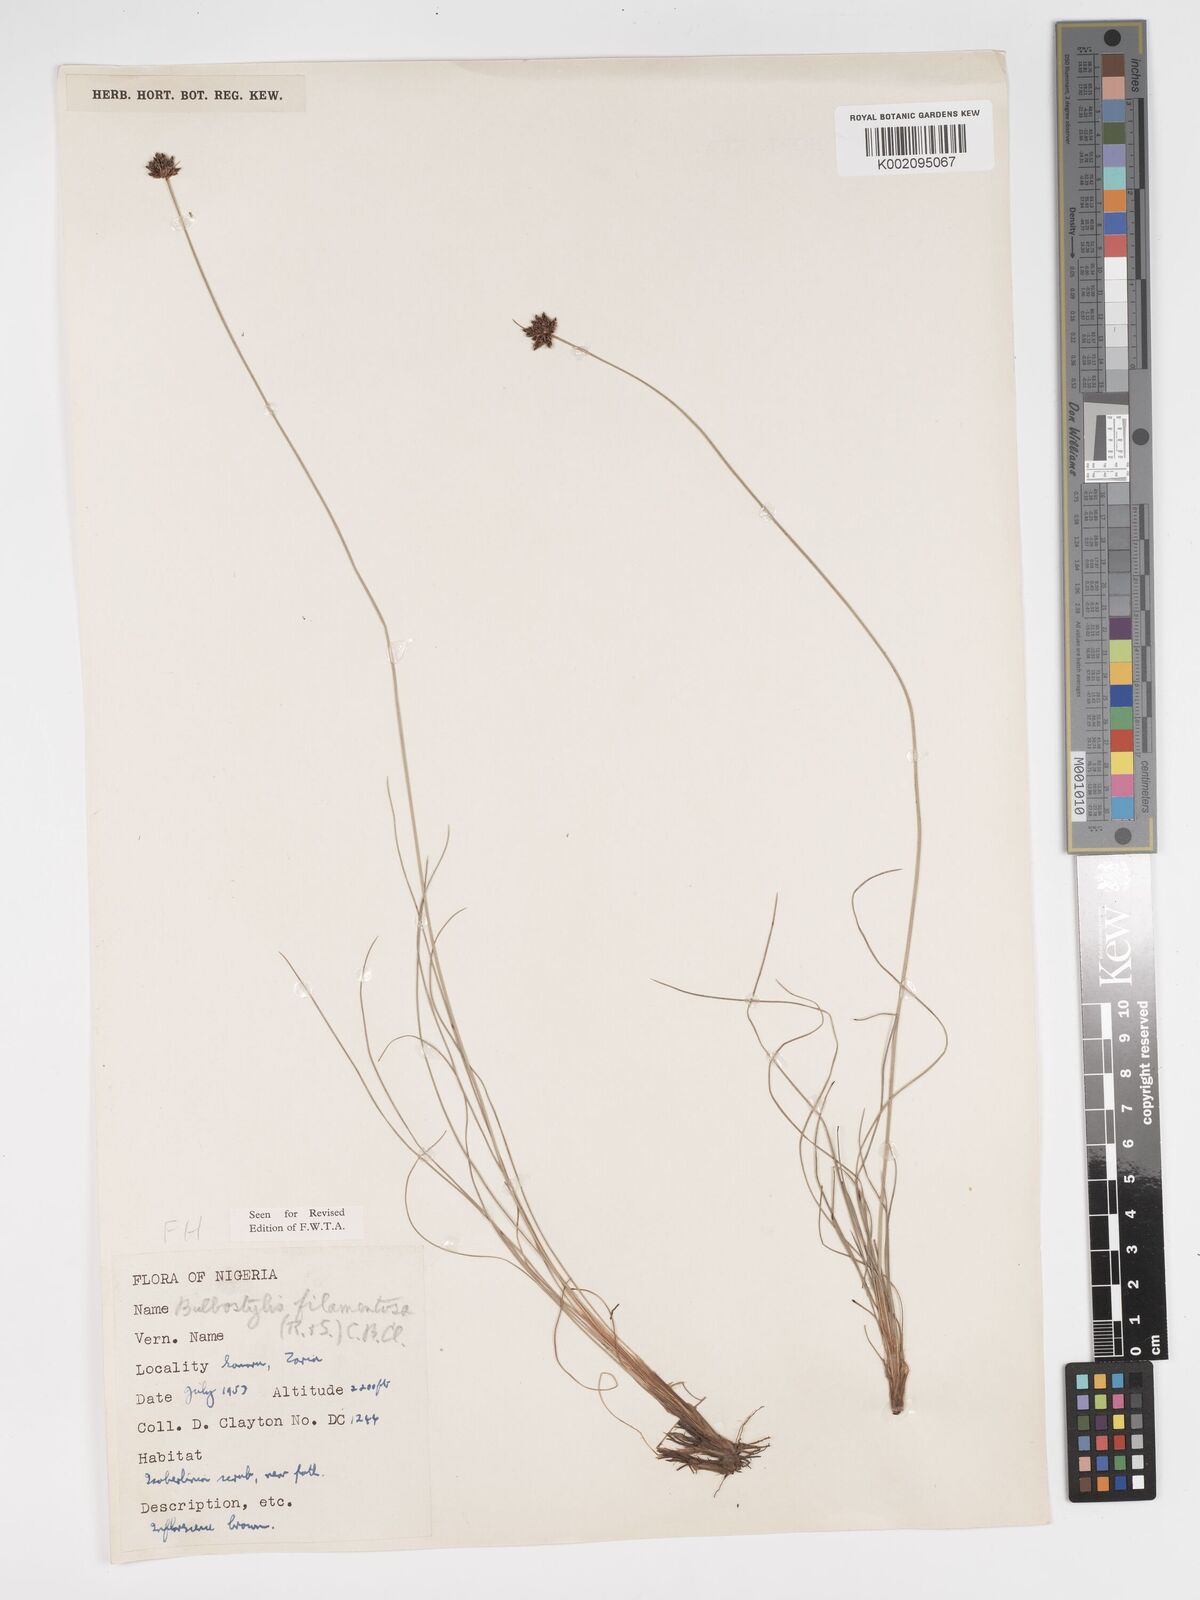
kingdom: Plantae
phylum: Tracheophyta
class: Liliopsida
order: Poales
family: Cyperaceae
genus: Bulbostylis
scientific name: Bulbostylis scabricaulis
